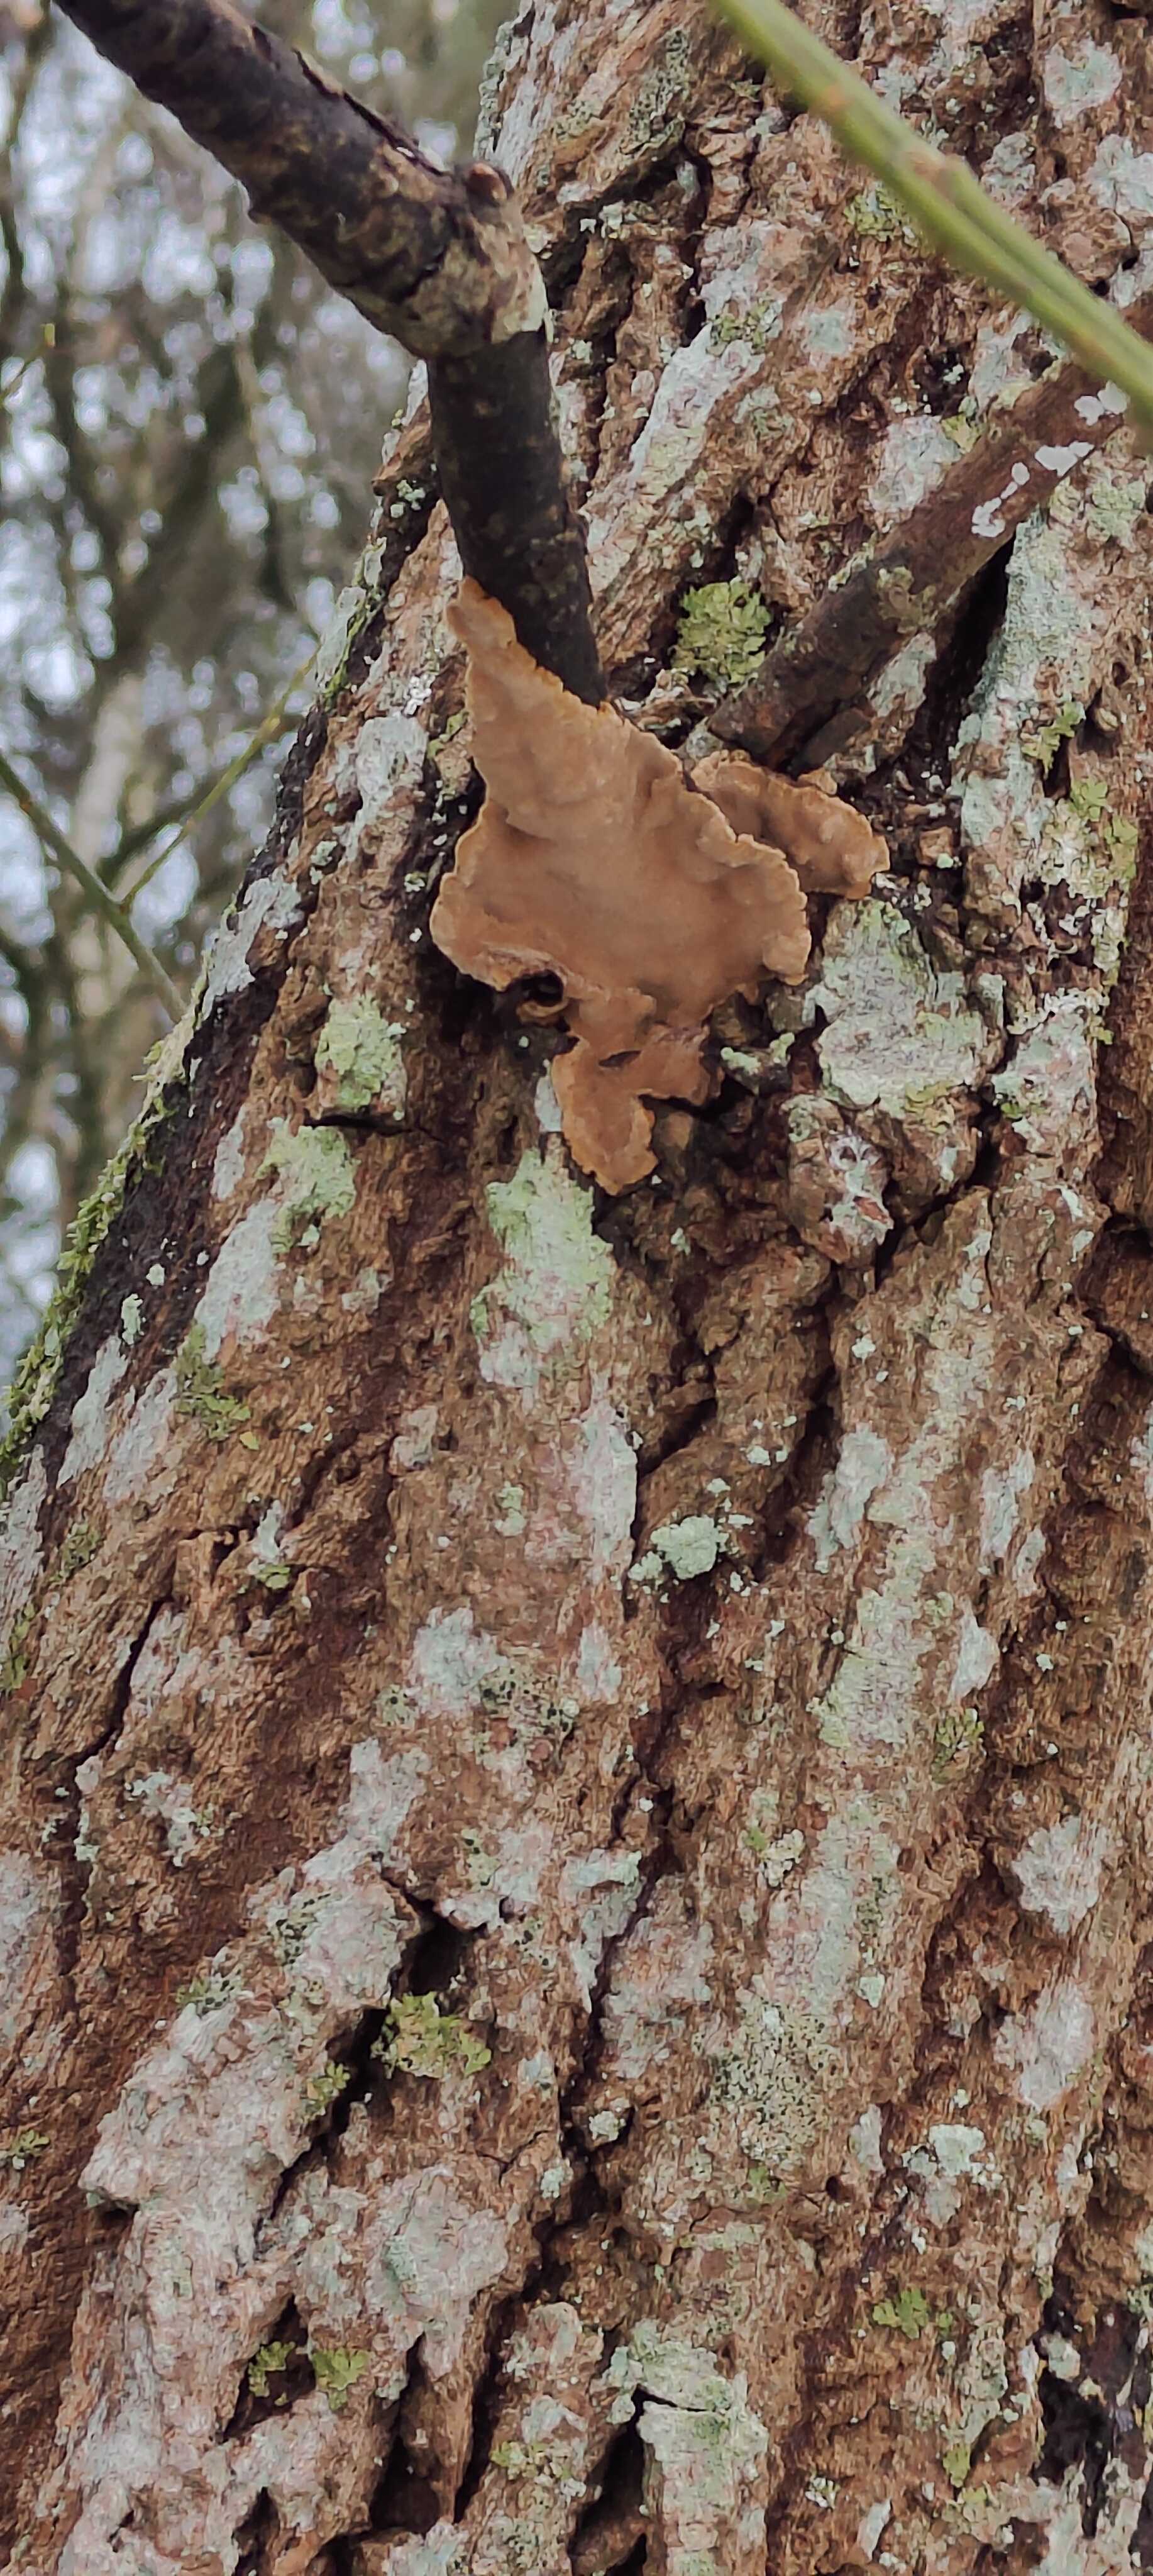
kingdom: Fungi
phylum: Basidiomycota
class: Agaricomycetes
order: Hymenochaetales
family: Hymenochaetaceae
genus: Phellinopsis
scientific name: Phellinopsis conchata
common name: pile-ildporesvamp
